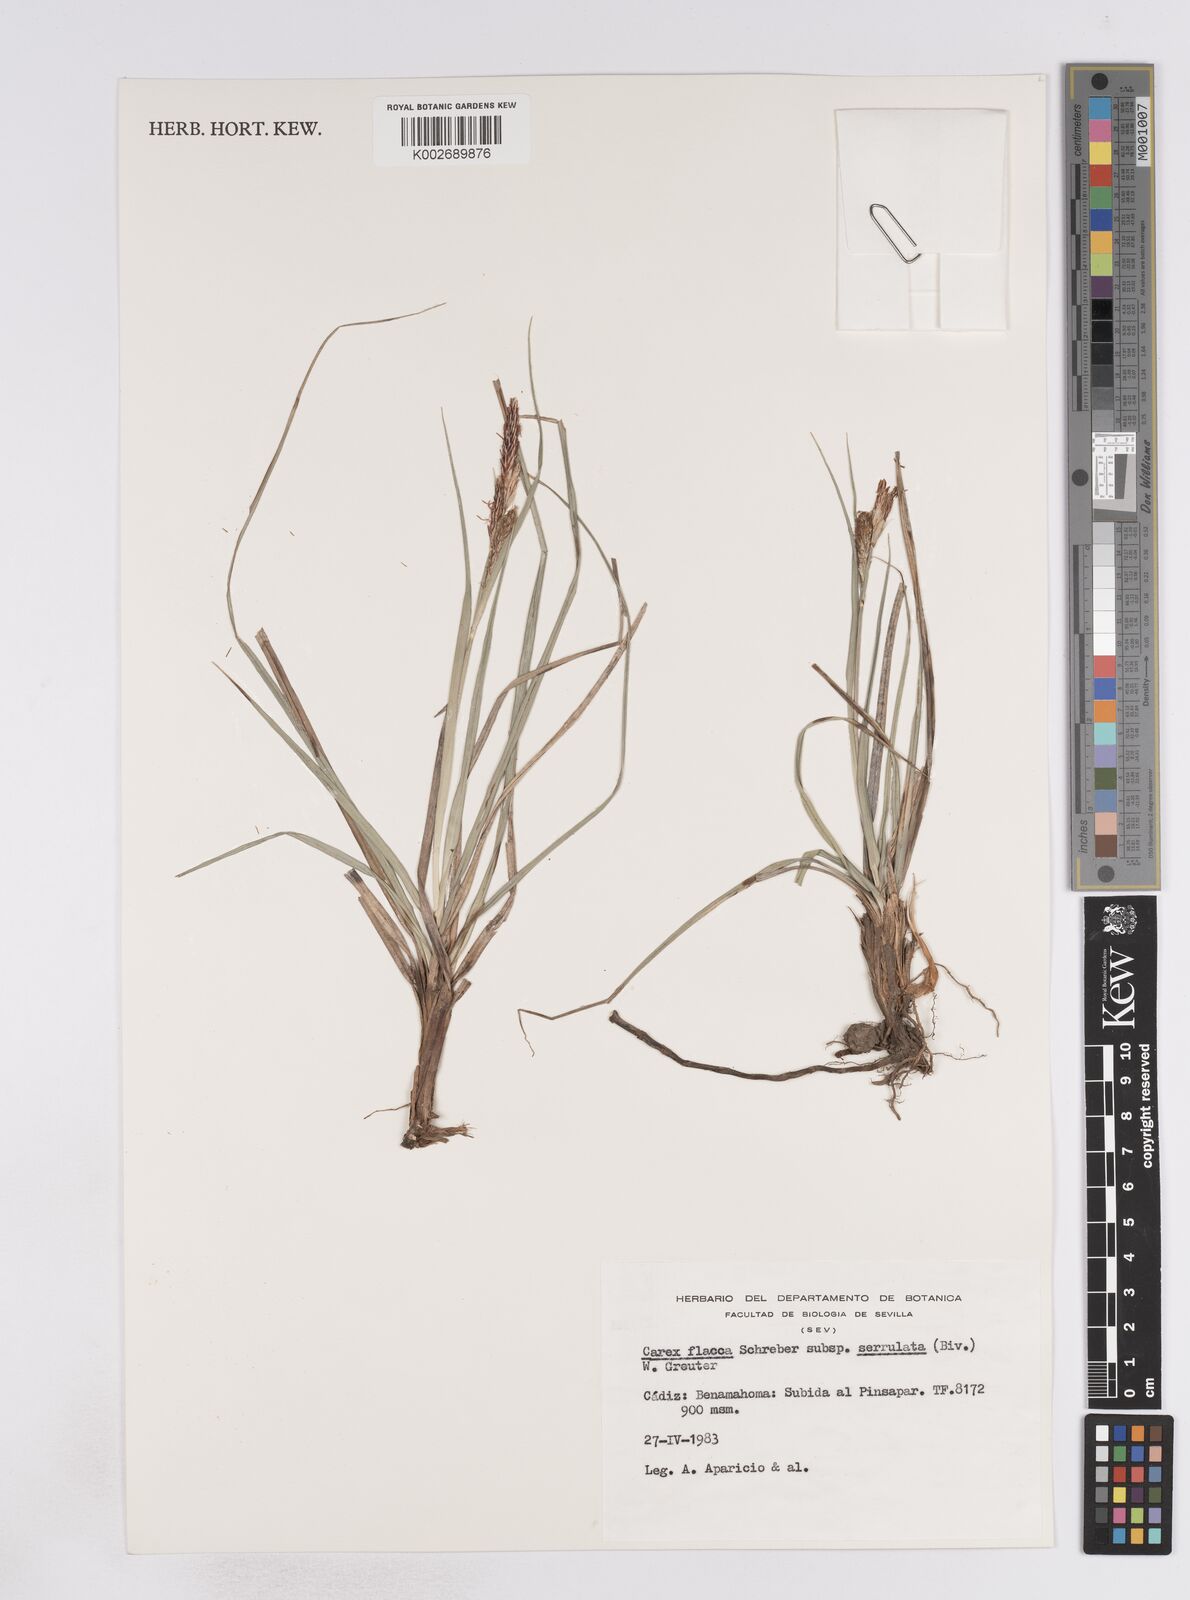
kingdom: Plantae
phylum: Tracheophyta
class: Liliopsida
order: Poales
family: Cyperaceae
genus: Carex
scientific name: Carex flacca
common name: Glaucous sedge
